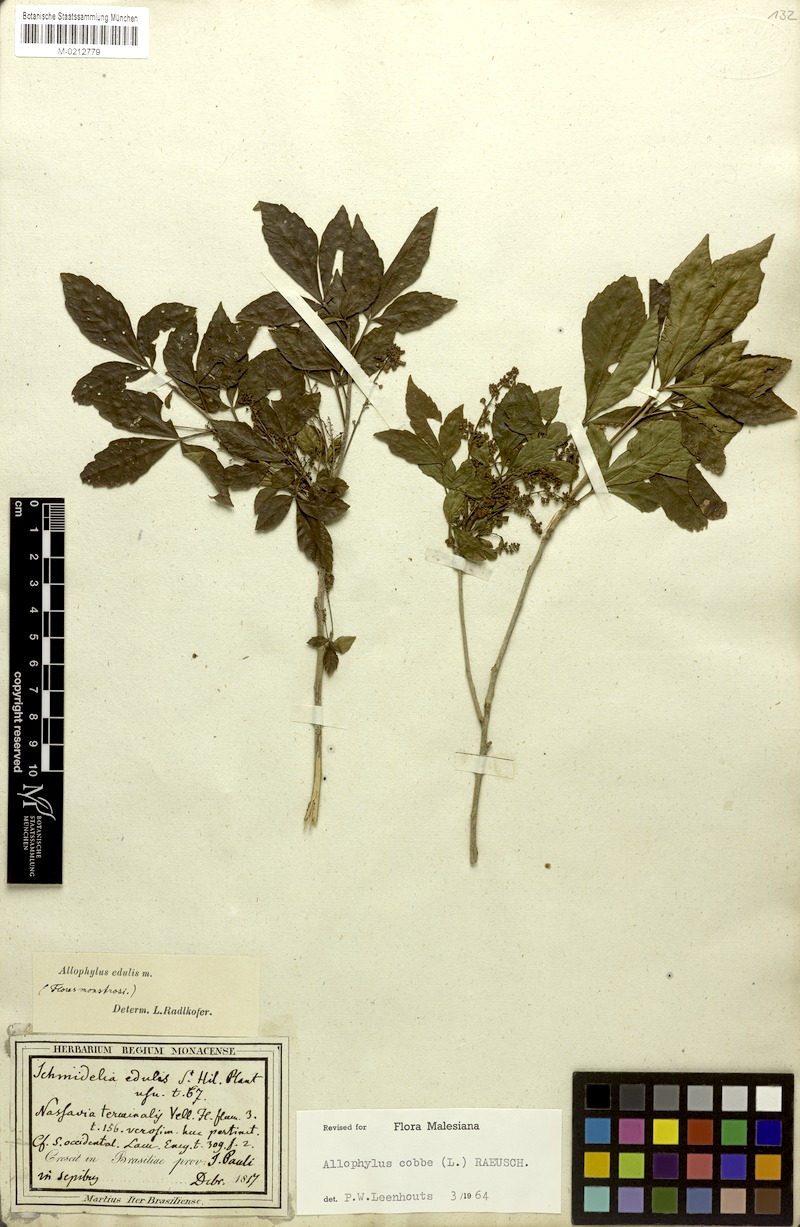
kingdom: Plantae
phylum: Tracheophyta
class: Magnoliopsida
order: Sapindales
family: Sapindaceae
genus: Allophylus
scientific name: Allophylus edulis
